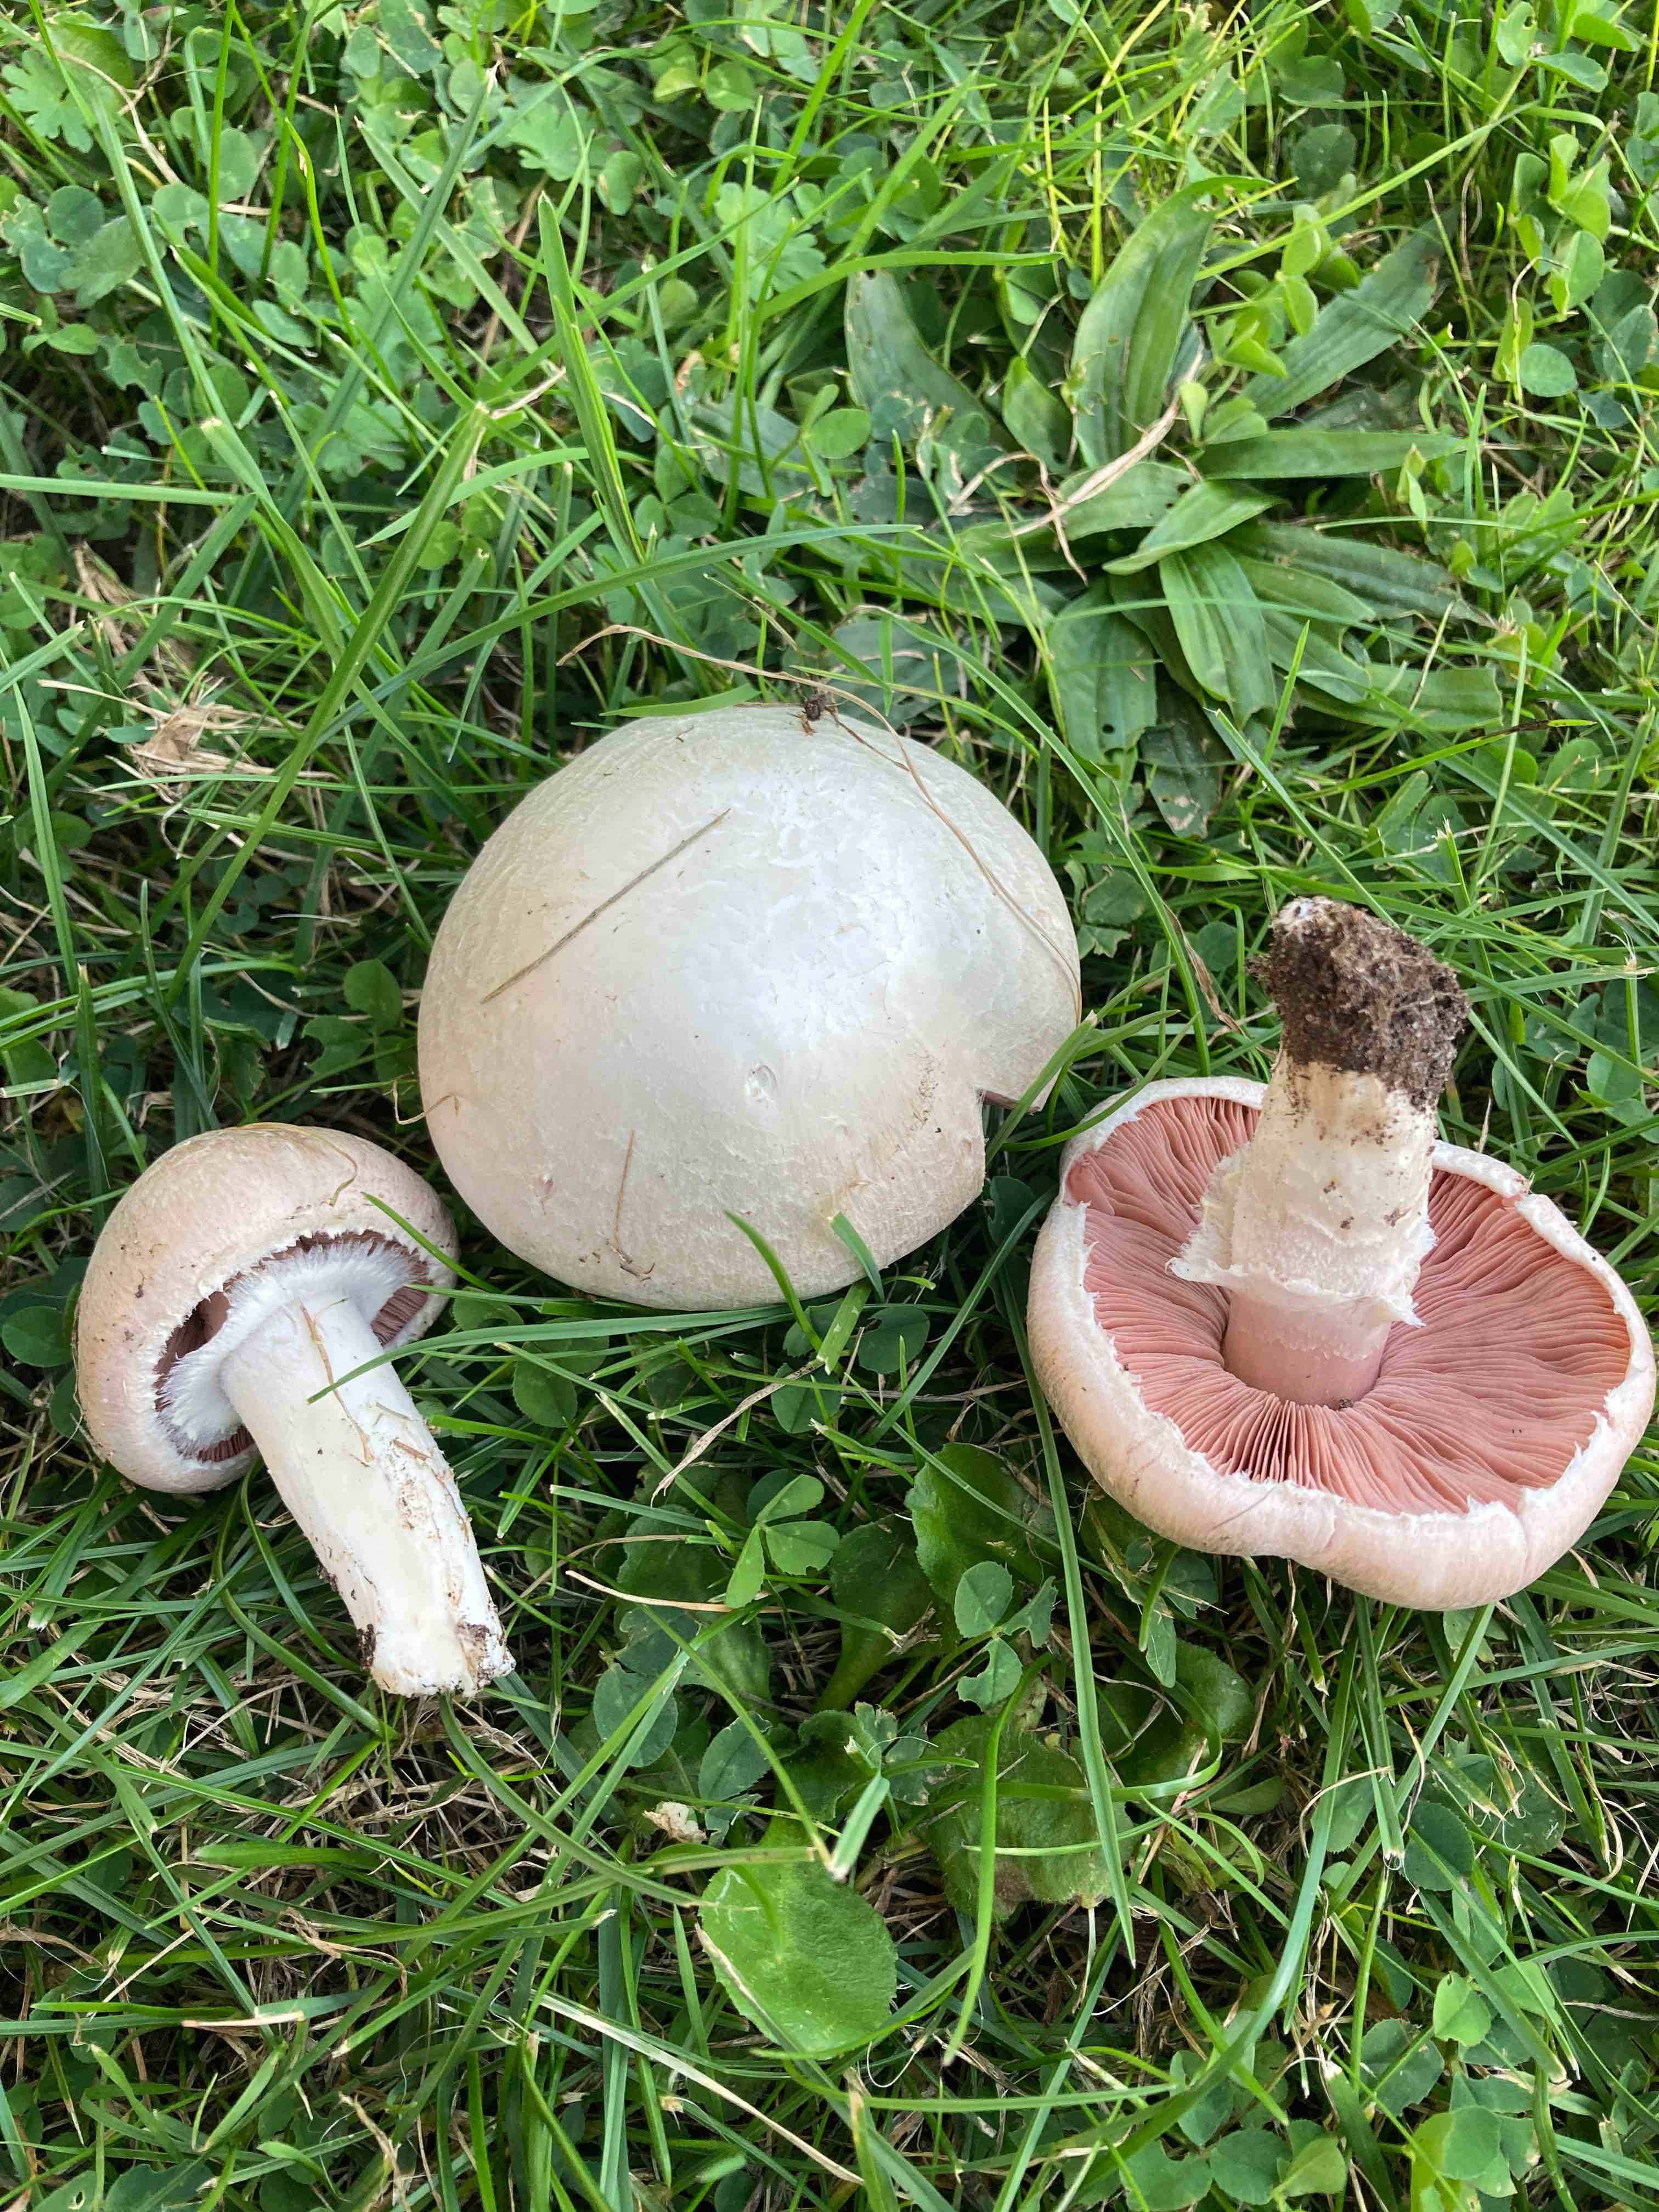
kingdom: Fungi
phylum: Basidiomycota
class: Agaricomycetes
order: Agaricales
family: Agaricaceae
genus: Agaricus
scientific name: Agaricus campestris
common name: mark-champignon
